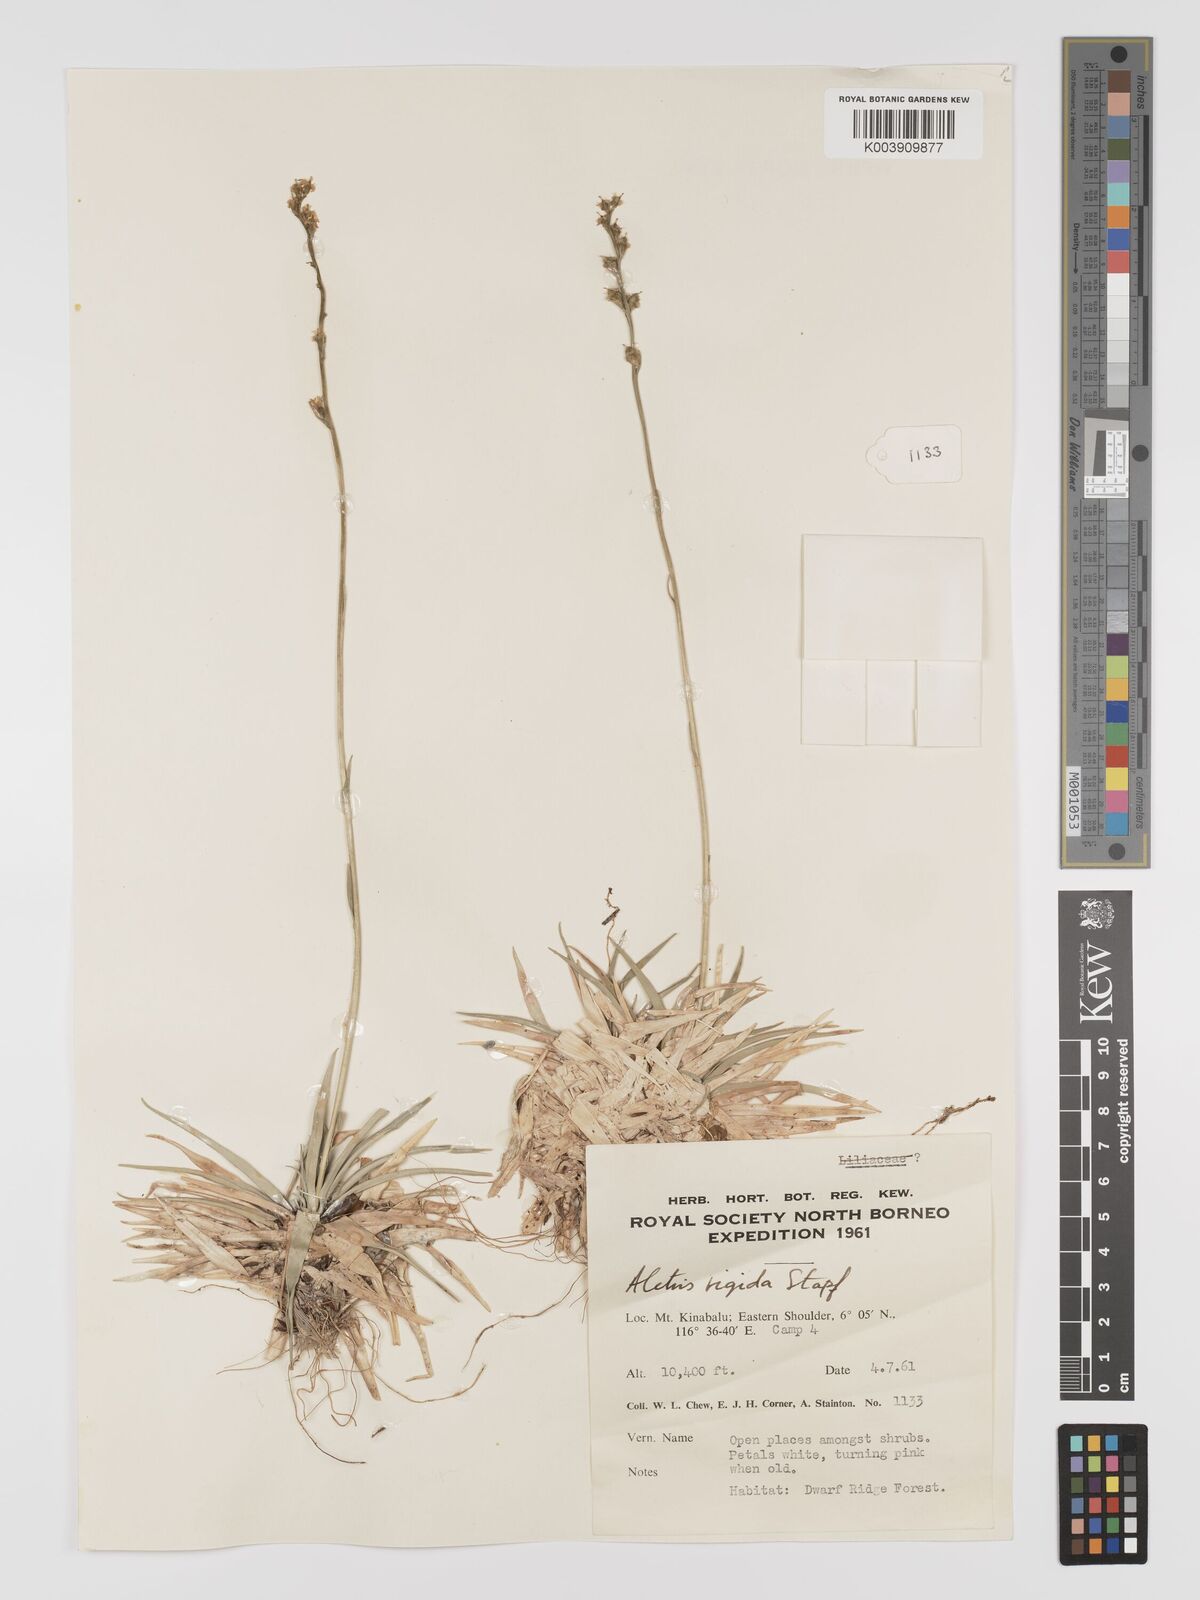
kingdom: Plantae
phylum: Tracheophyta
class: Liliopsida
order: Dioscoreales
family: Nartheciaceae
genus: Aletris
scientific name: Aletris foliolosa
